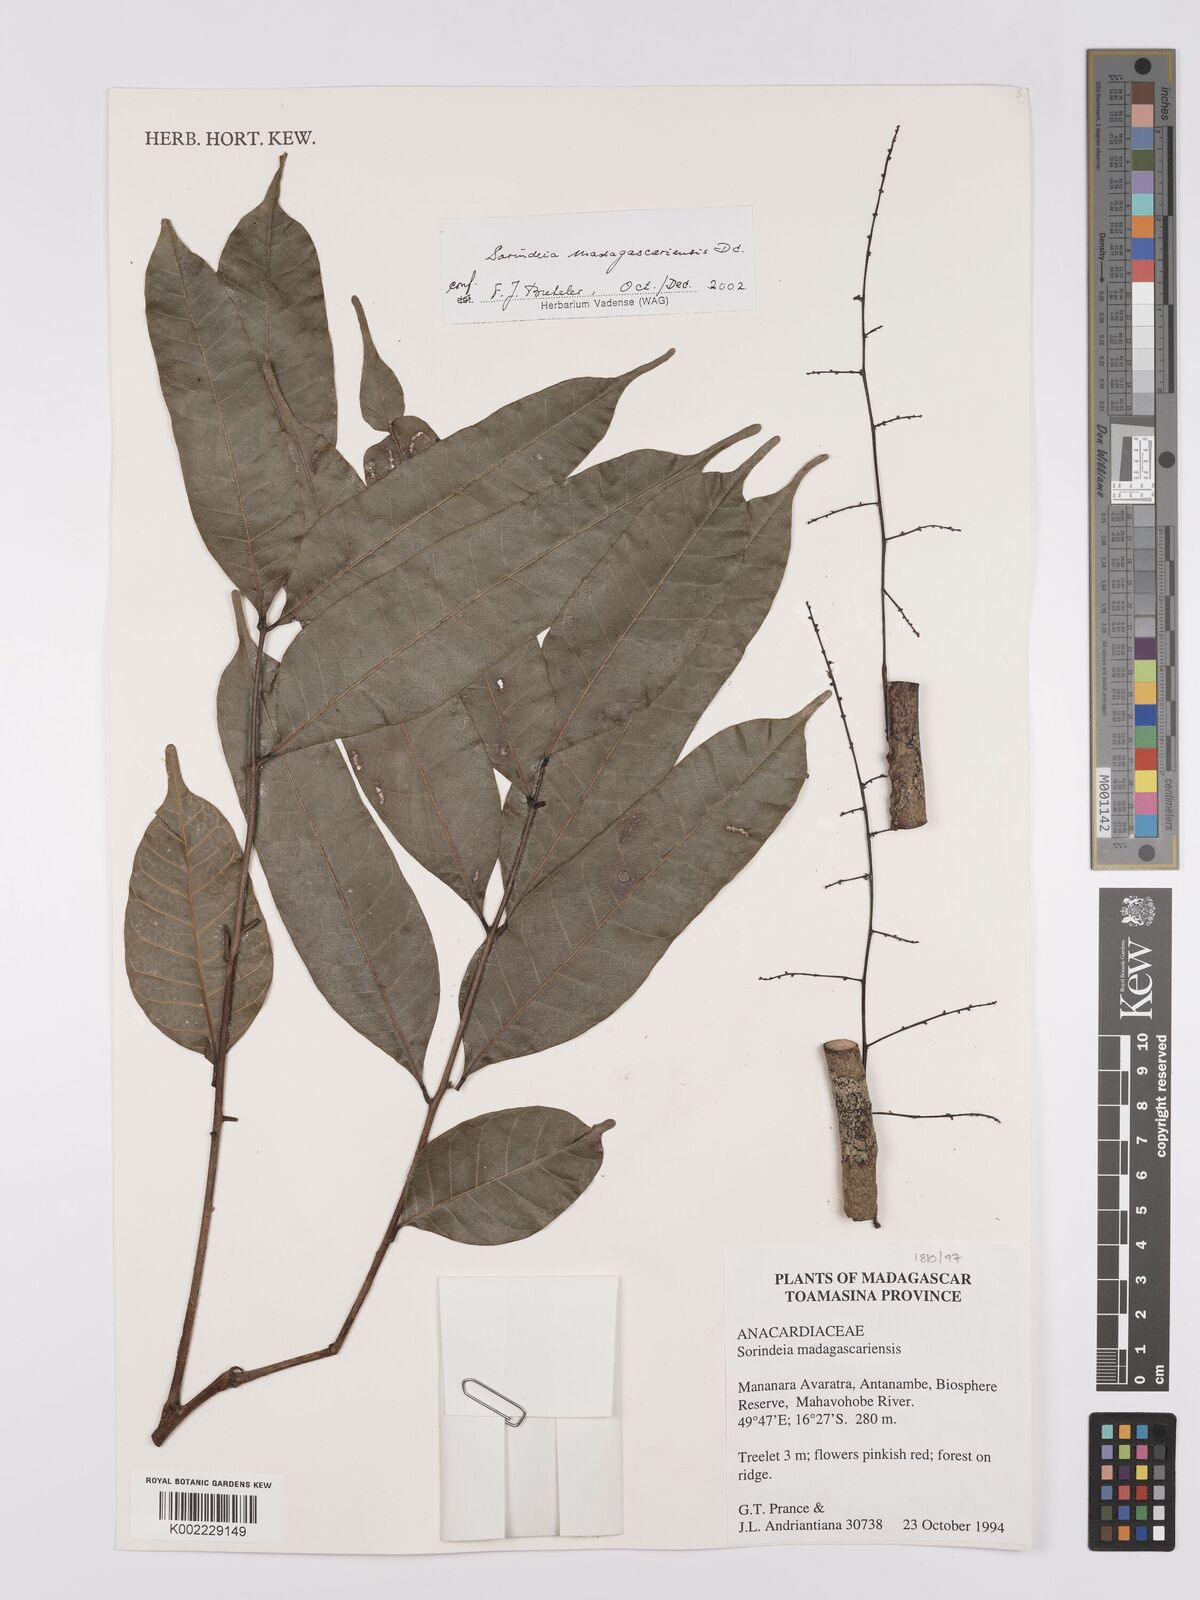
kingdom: Plantae
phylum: Tracheophyta
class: Magnoliopsida
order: Sapindales
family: Anacardiaceae
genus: Sorindeia
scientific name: Sorindeia madagascariensis
